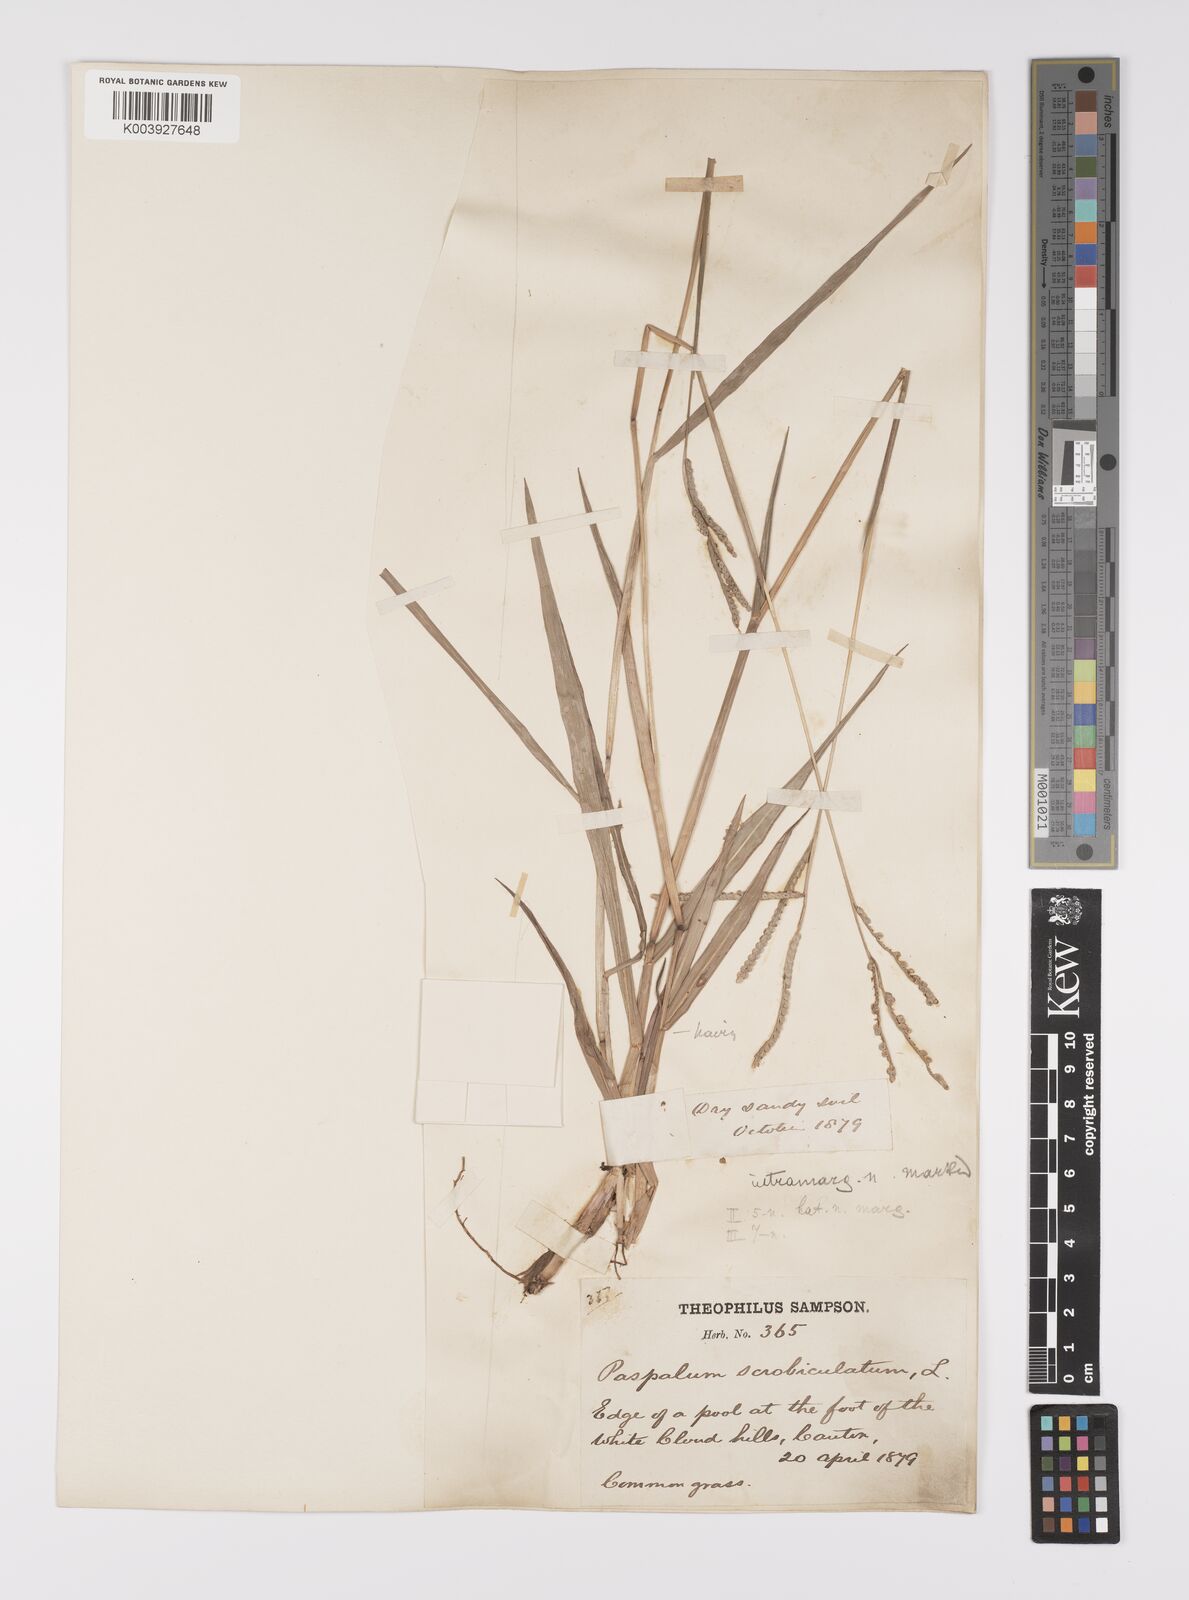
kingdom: Plantae
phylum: Tracheophyta
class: Liliopsida
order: Poales
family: Poaceae
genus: Paspalum
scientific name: Paspalum scrobiculatum
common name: Kodo millet
